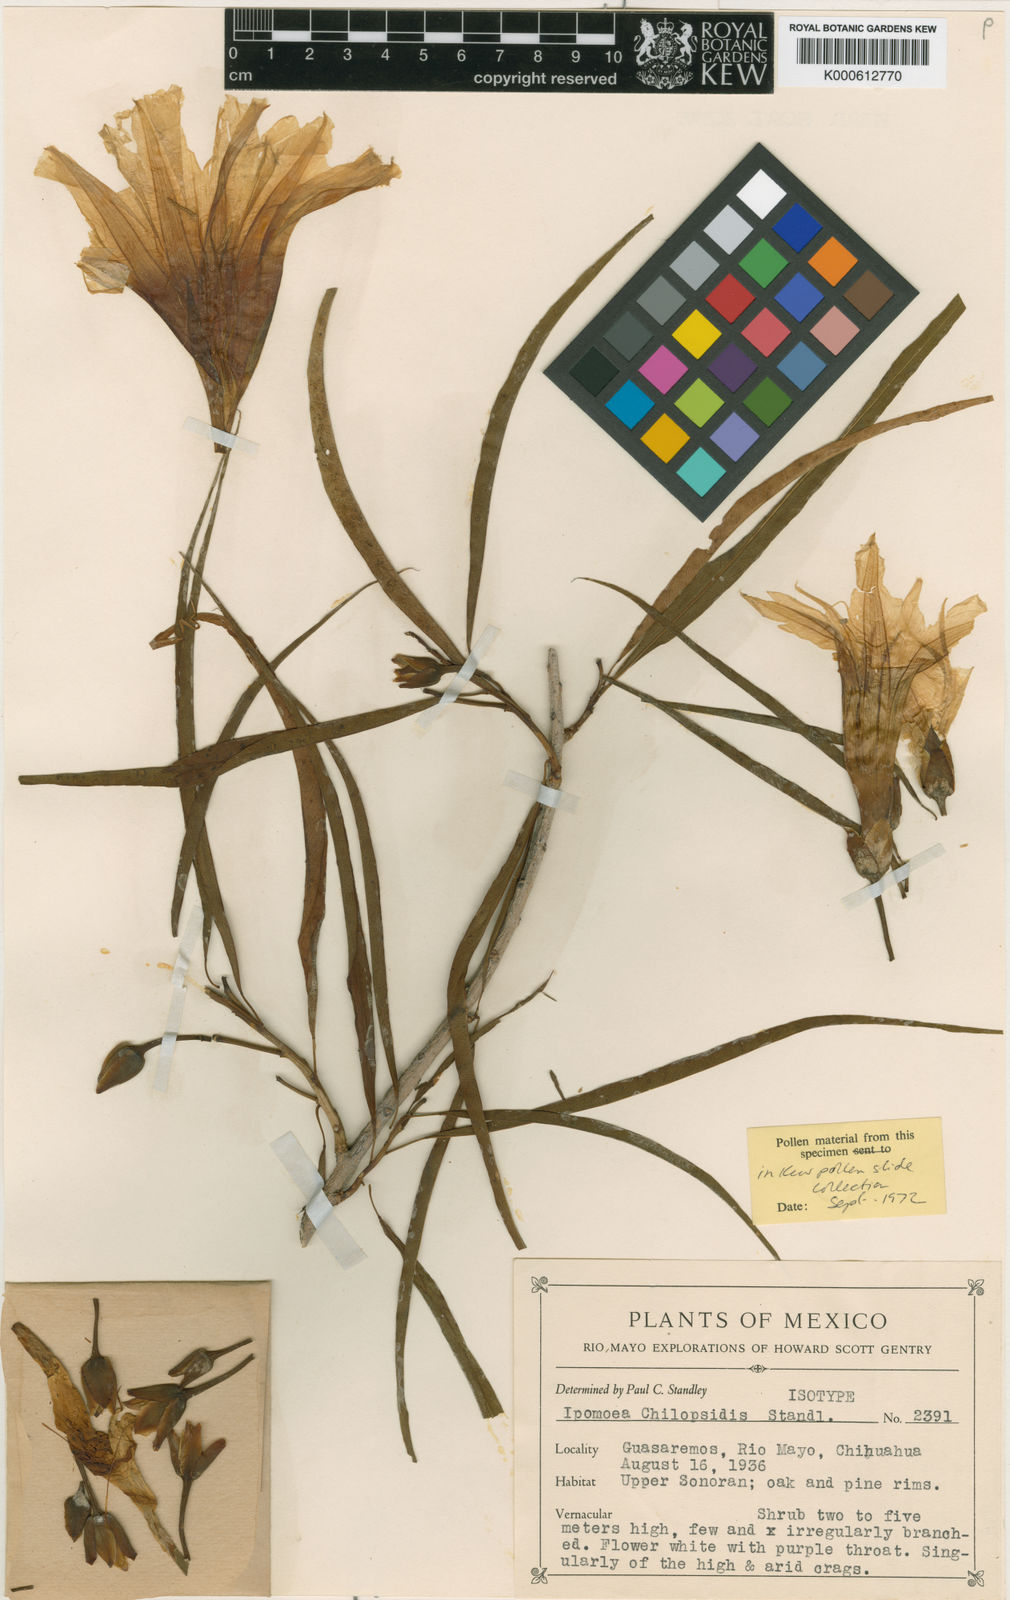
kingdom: Plantae
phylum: Tracheophyta
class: Magnoliopsida
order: Solanales
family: Convolvulaceae
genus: Ipomoea
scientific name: Ipomoea chilopsidis
